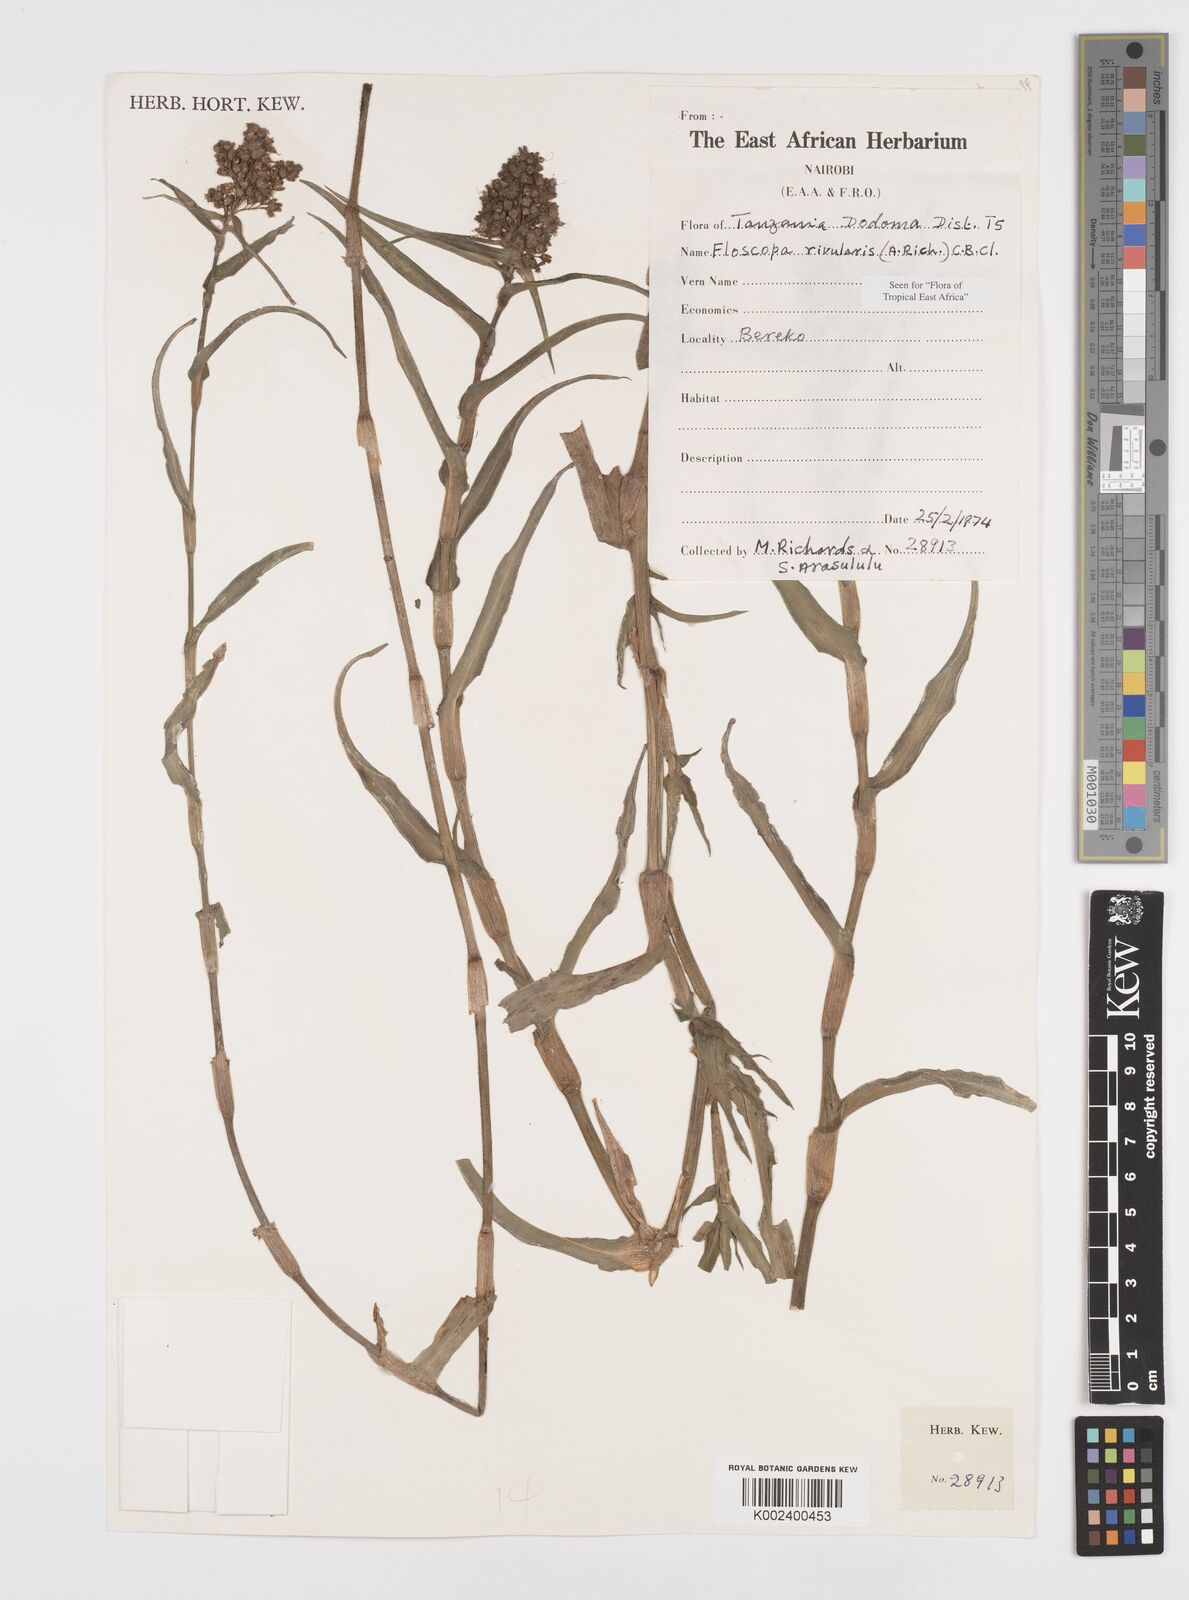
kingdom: Plantae
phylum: Tracheophyta
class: Liliopsida
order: Commelinales
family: Commelinaceae
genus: Floscopa
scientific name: Floscopa glomerata
